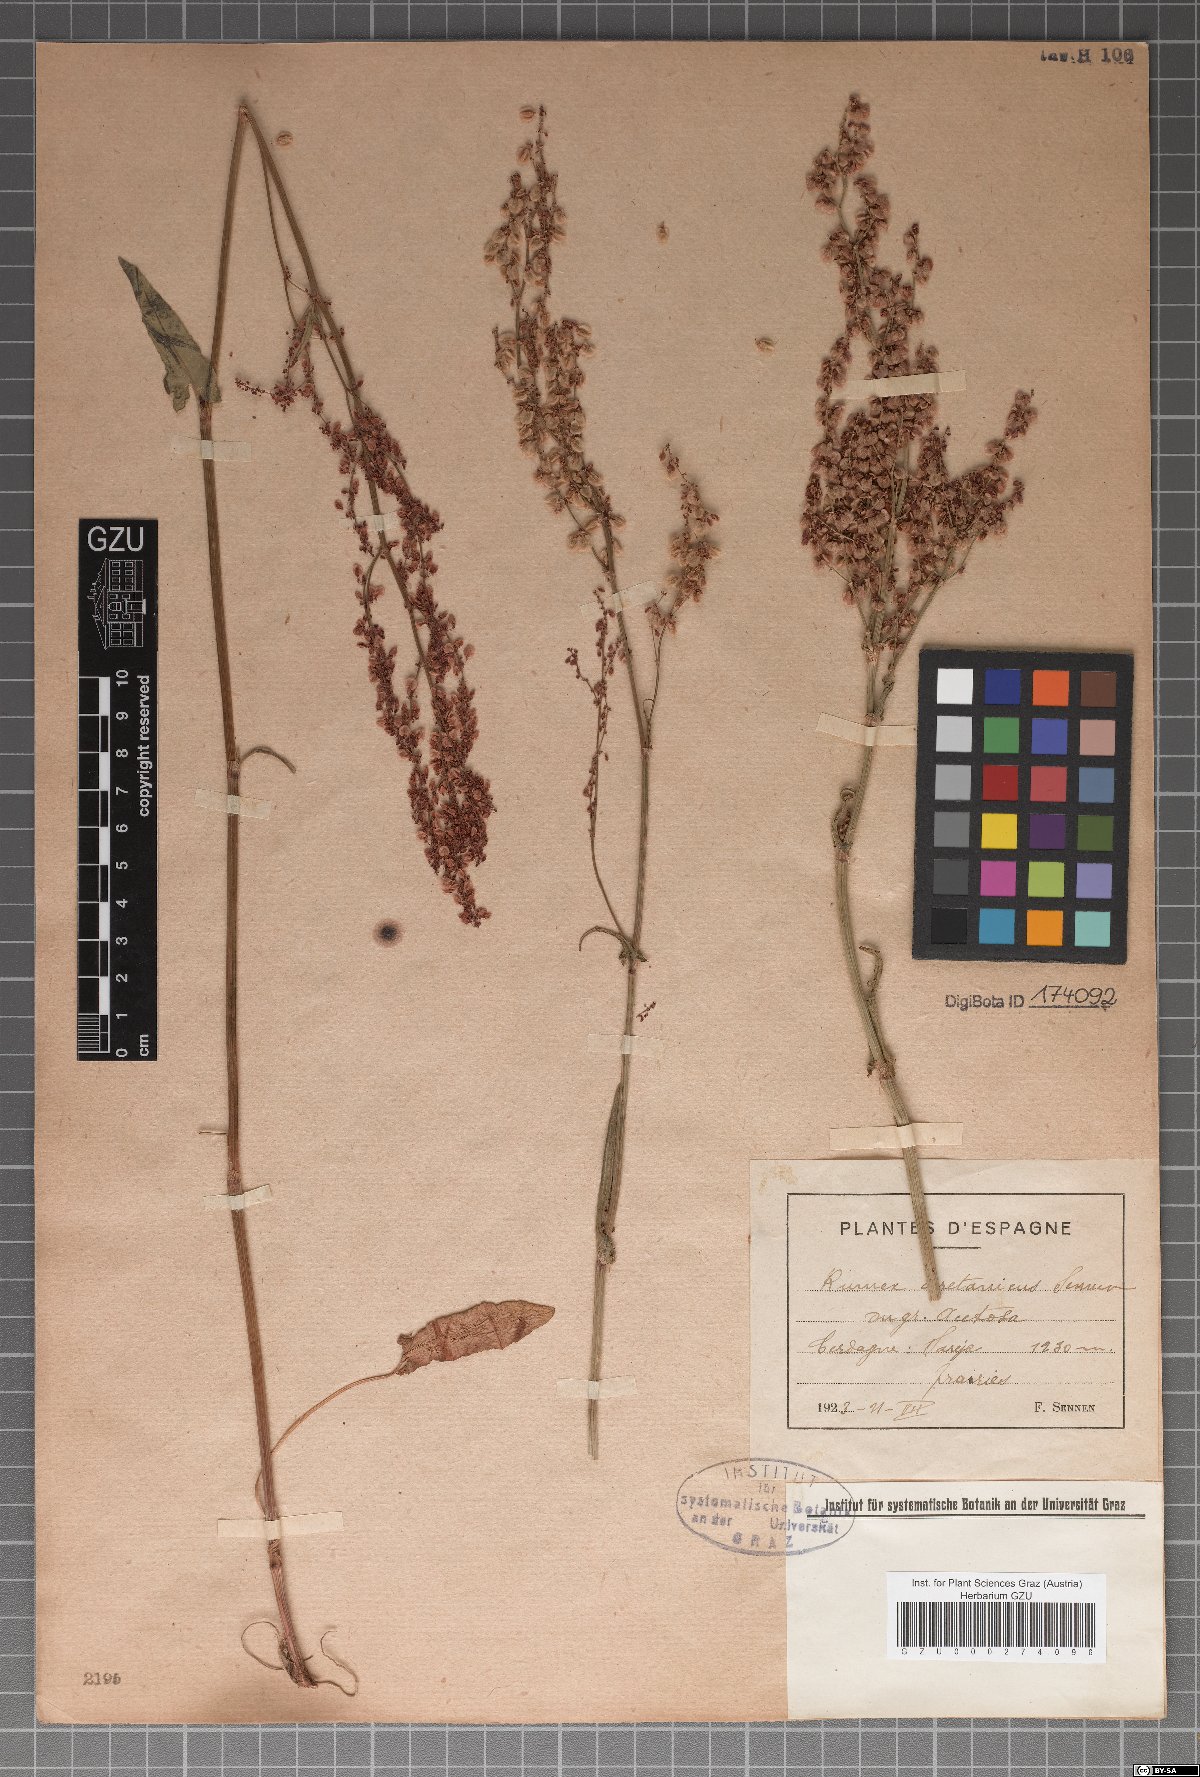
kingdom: Plantae
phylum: Tracheophyta
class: Magnoliopsida
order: Caryophyllales
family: Polygonaceae
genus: Rumex
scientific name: Rumex ceretanus
